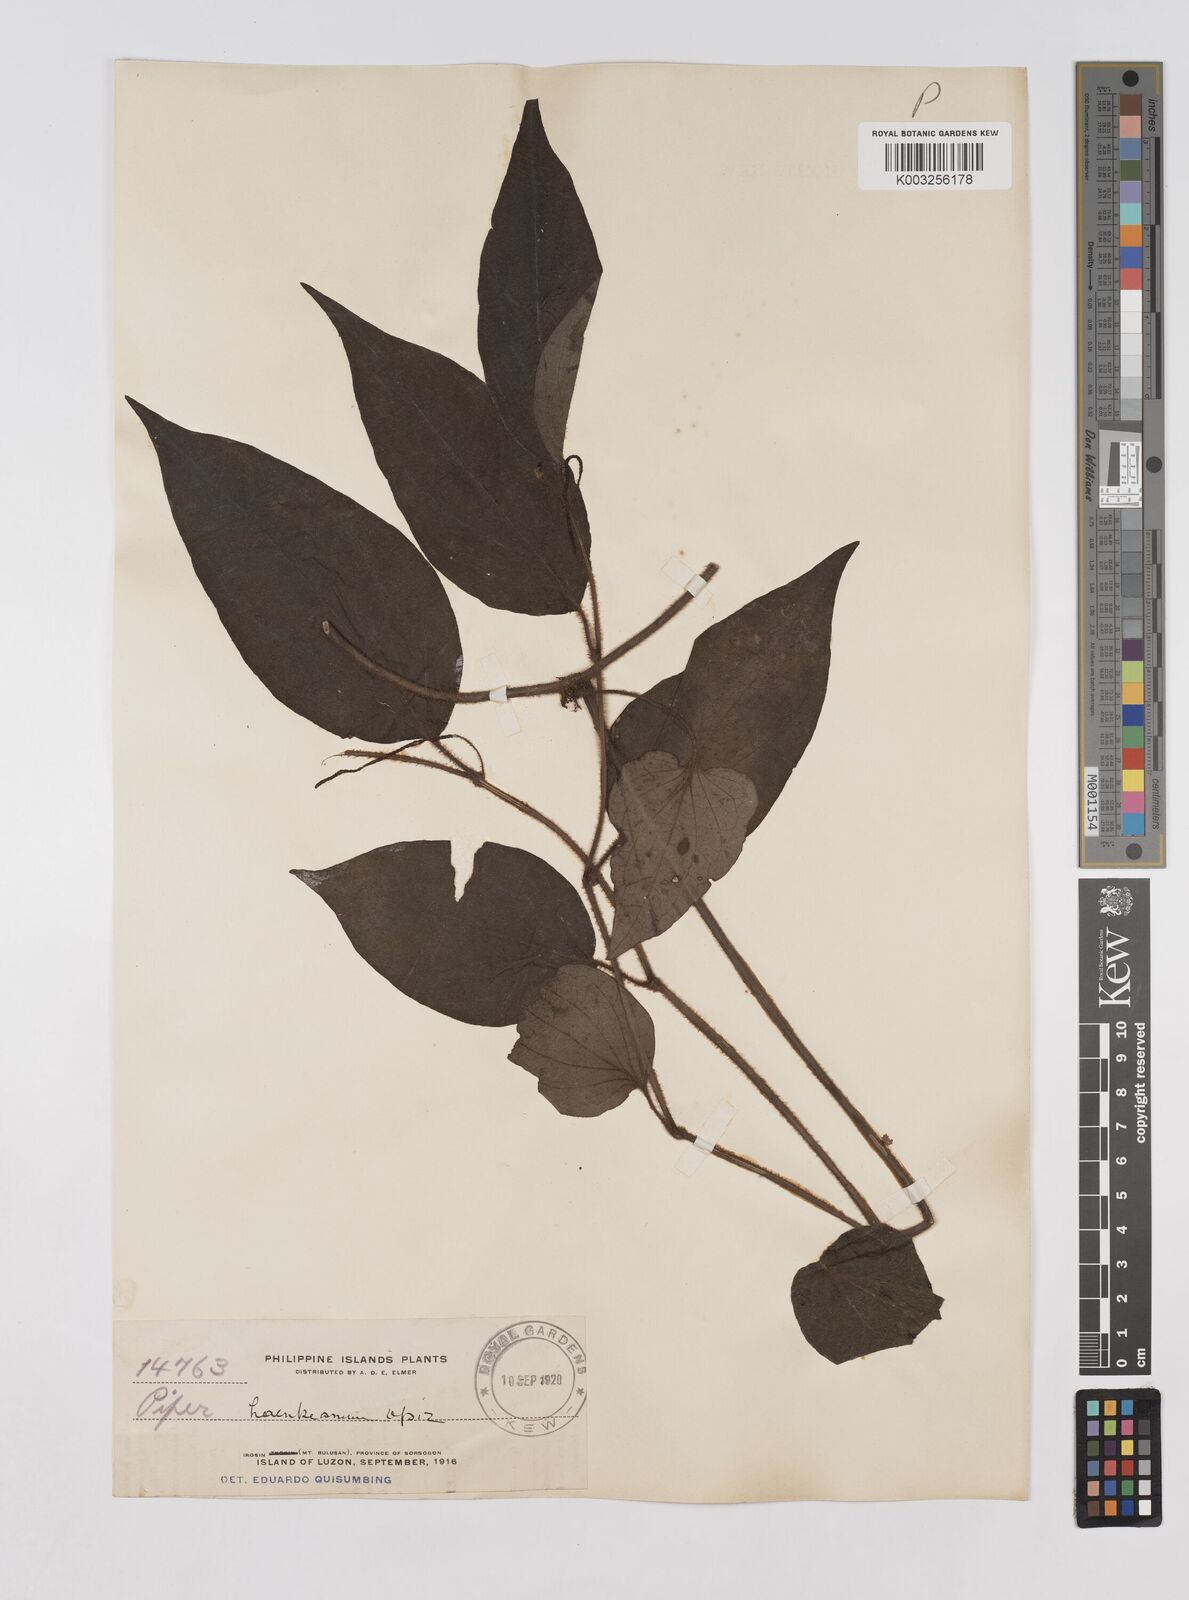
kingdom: Plantae
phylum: Tracheophyta
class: Magnoliopsida
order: Piperales
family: Piperaceae
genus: Piper
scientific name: Piper lanatum
